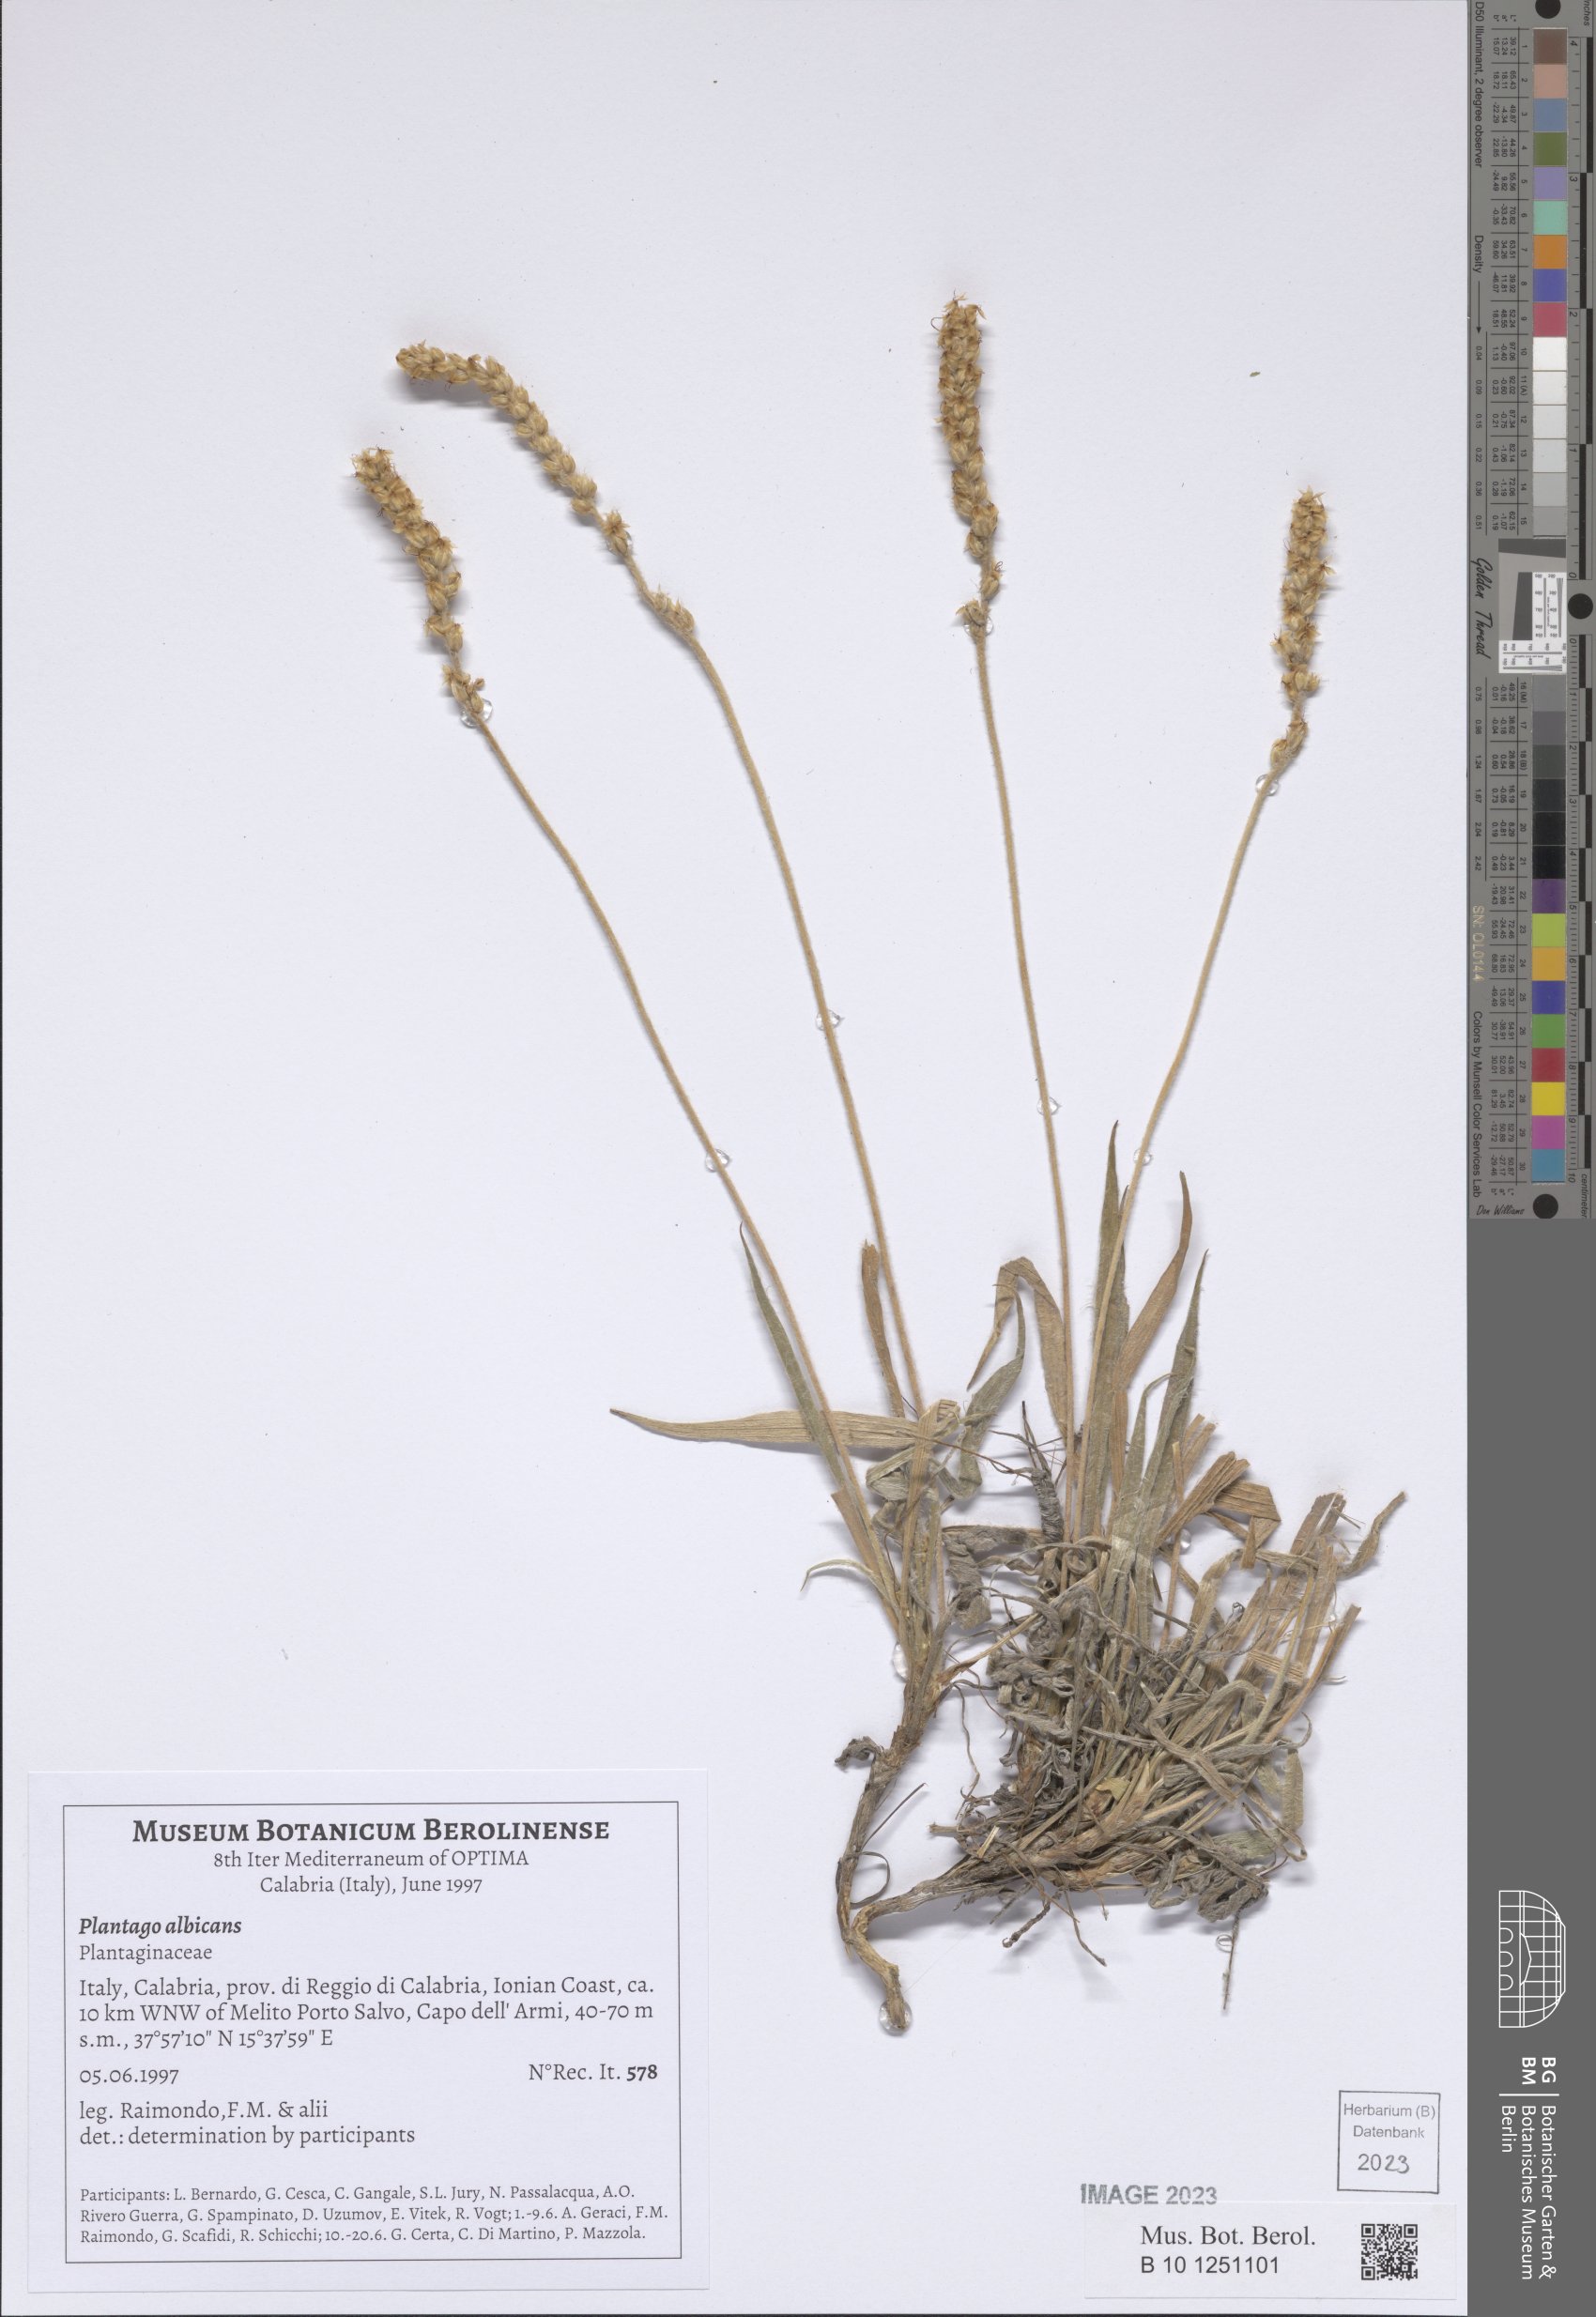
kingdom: Plantae
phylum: Tracheophyta
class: Magnoliopsida
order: Lamiales
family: Plantaginaceae
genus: Plantago
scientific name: Plantago albicans
